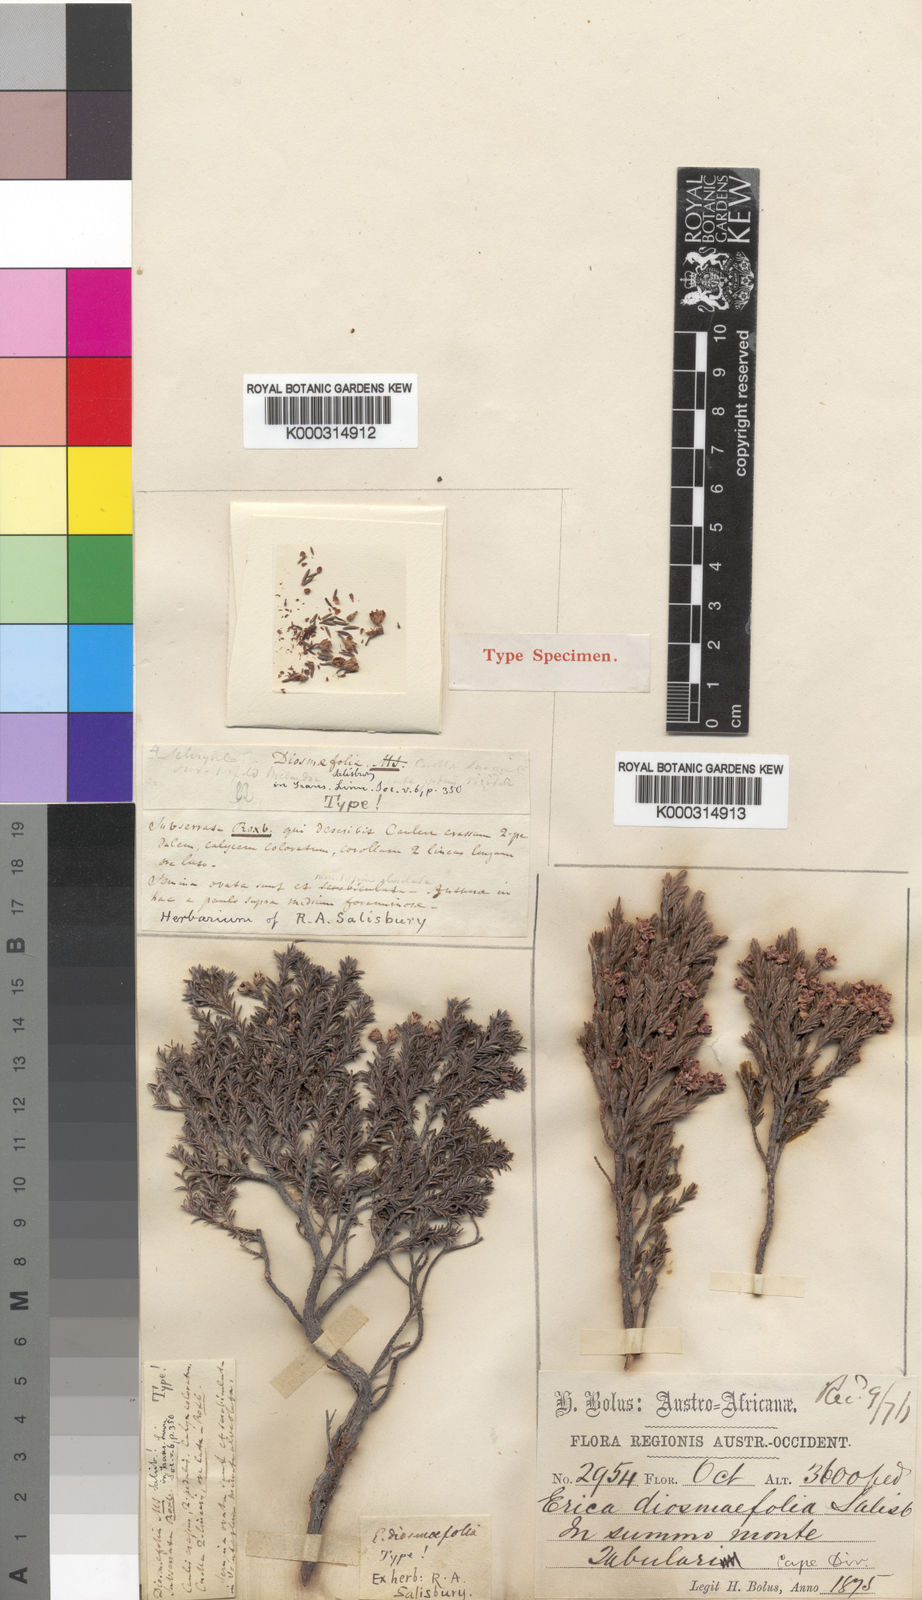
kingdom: Plantae
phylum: Tracheophyta
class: Magnoliopsida
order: Ericales
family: Ericaceae
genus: Erica
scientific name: Erica diosmifolia
